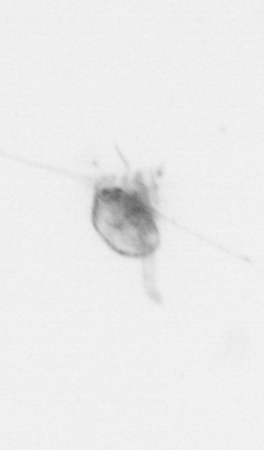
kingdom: Animalia
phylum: Arthropoda
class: Copepoda
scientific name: Copepoda
